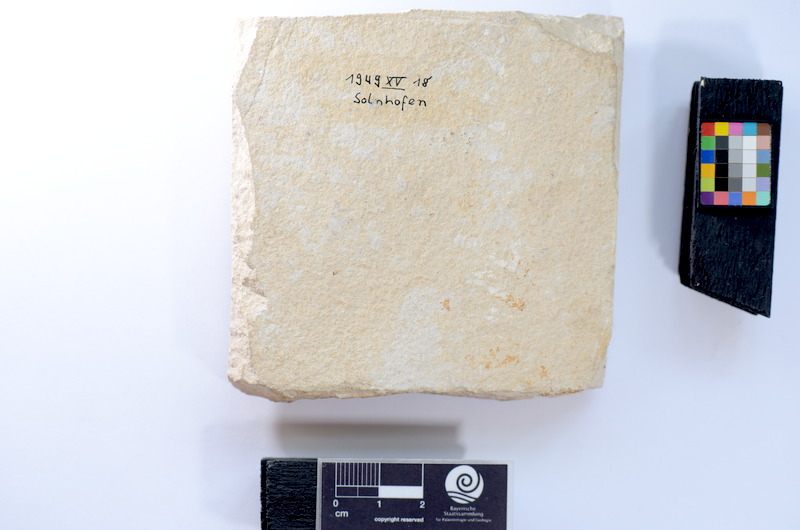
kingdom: Animalia
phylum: Chordata
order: Salmoniformes
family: Orthogonikleithridae
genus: Leptolepides
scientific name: Leptolepides sprattiformis
